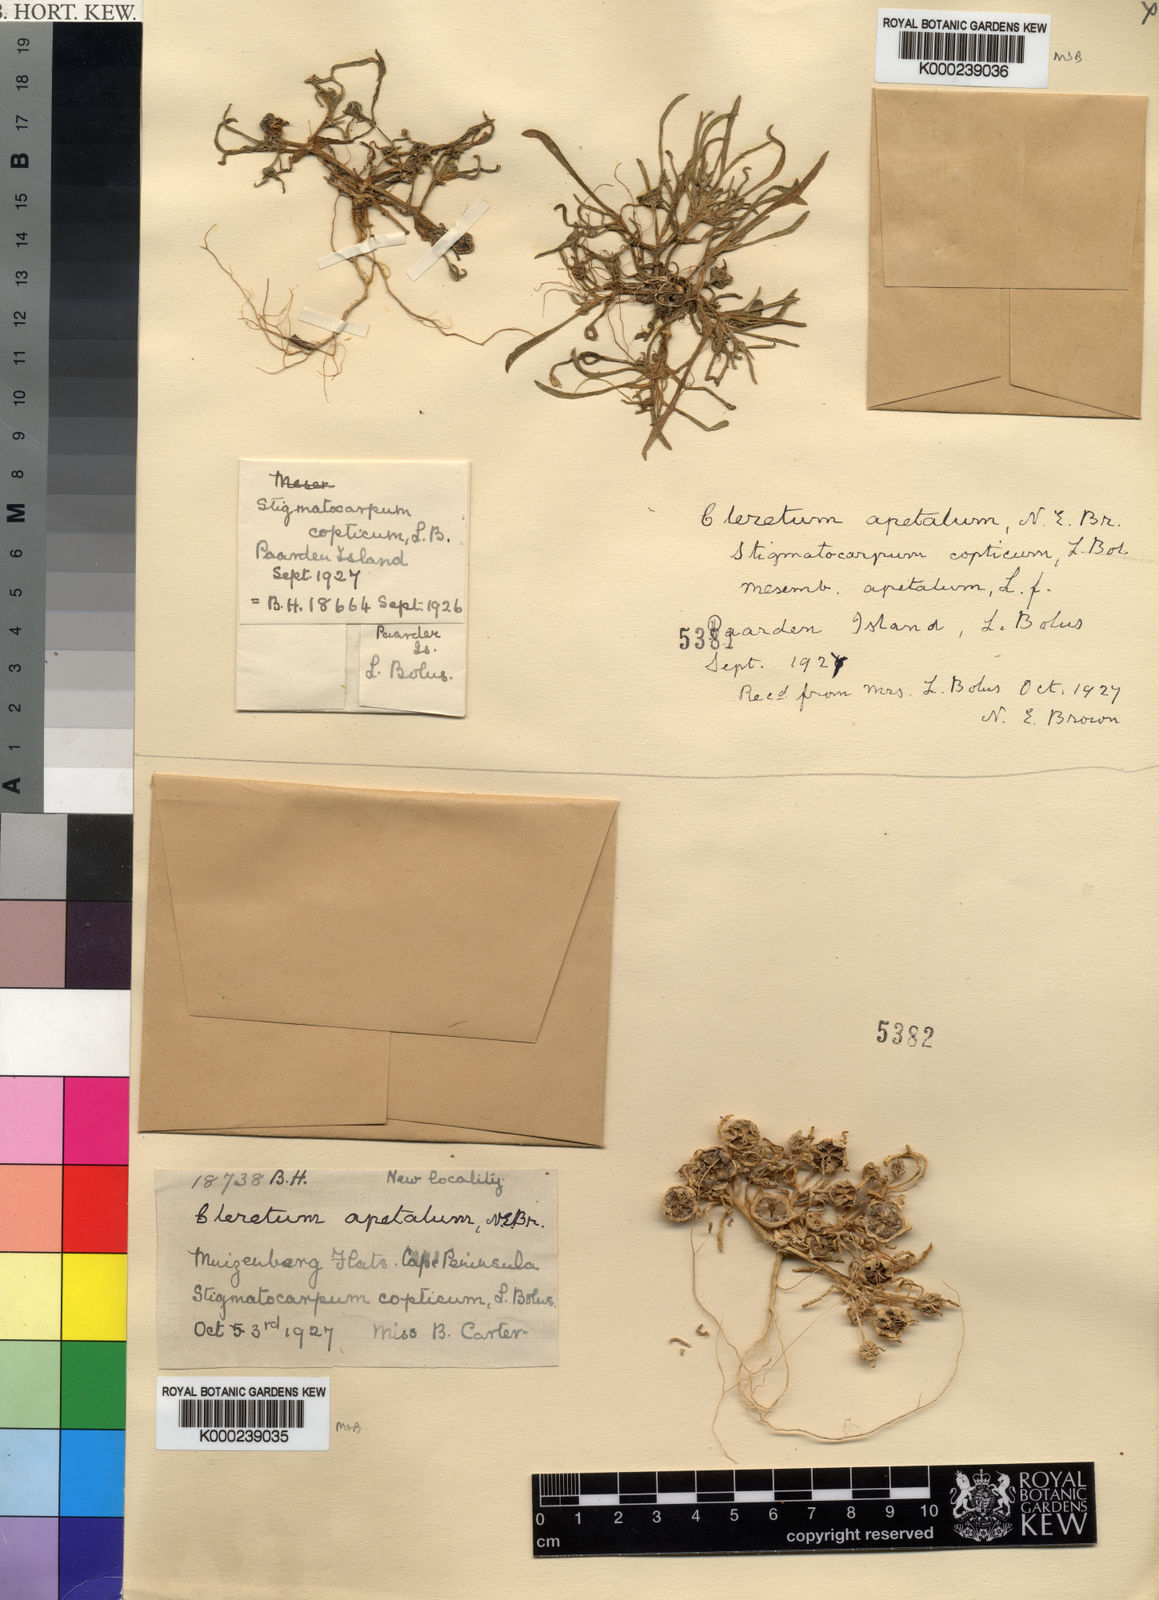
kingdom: Plantae
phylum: Tracheophyta
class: Magnoliopsida
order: Caryophyllales
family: Aizoaceae
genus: Cleretum
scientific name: Cleretum apetalum
